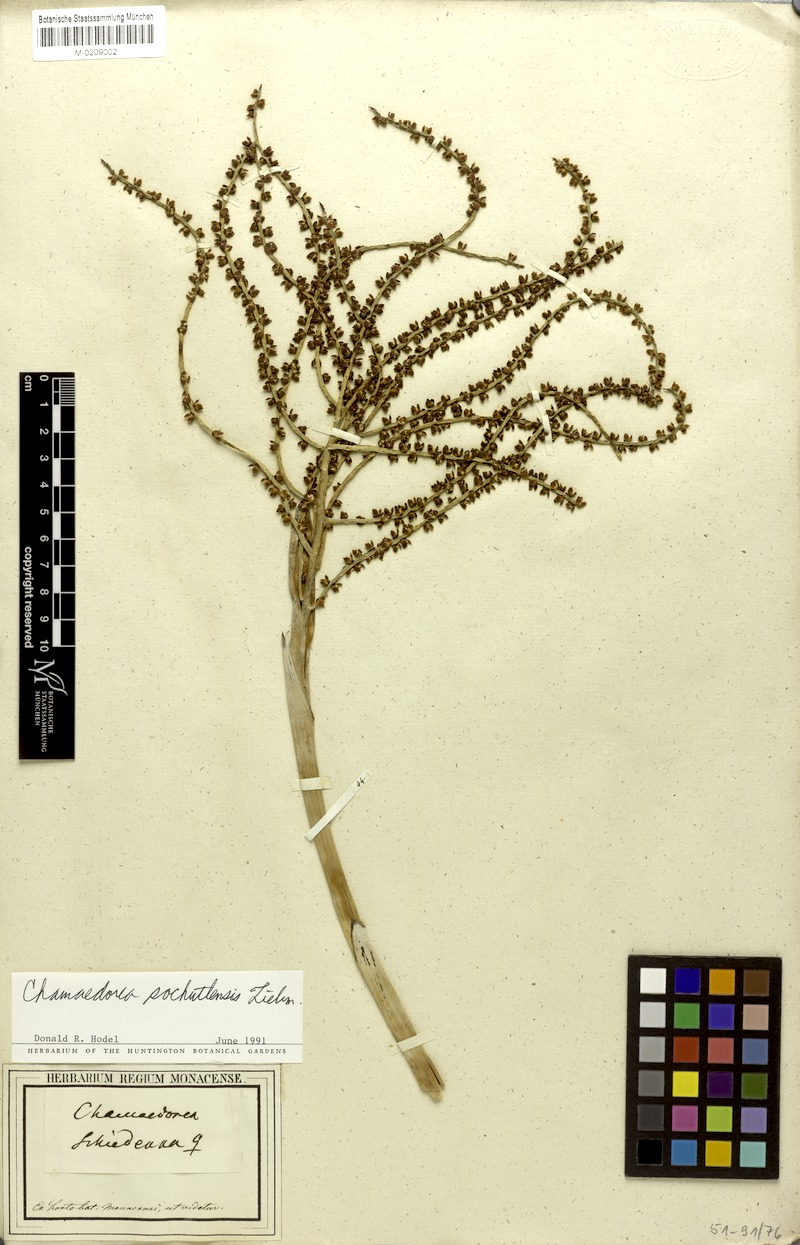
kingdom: Plantae
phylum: Tracheophyta
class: Liliopsida
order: Arecales
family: Arecaceae
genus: Chamaedorea
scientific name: Chamaedorea pochutlensis
